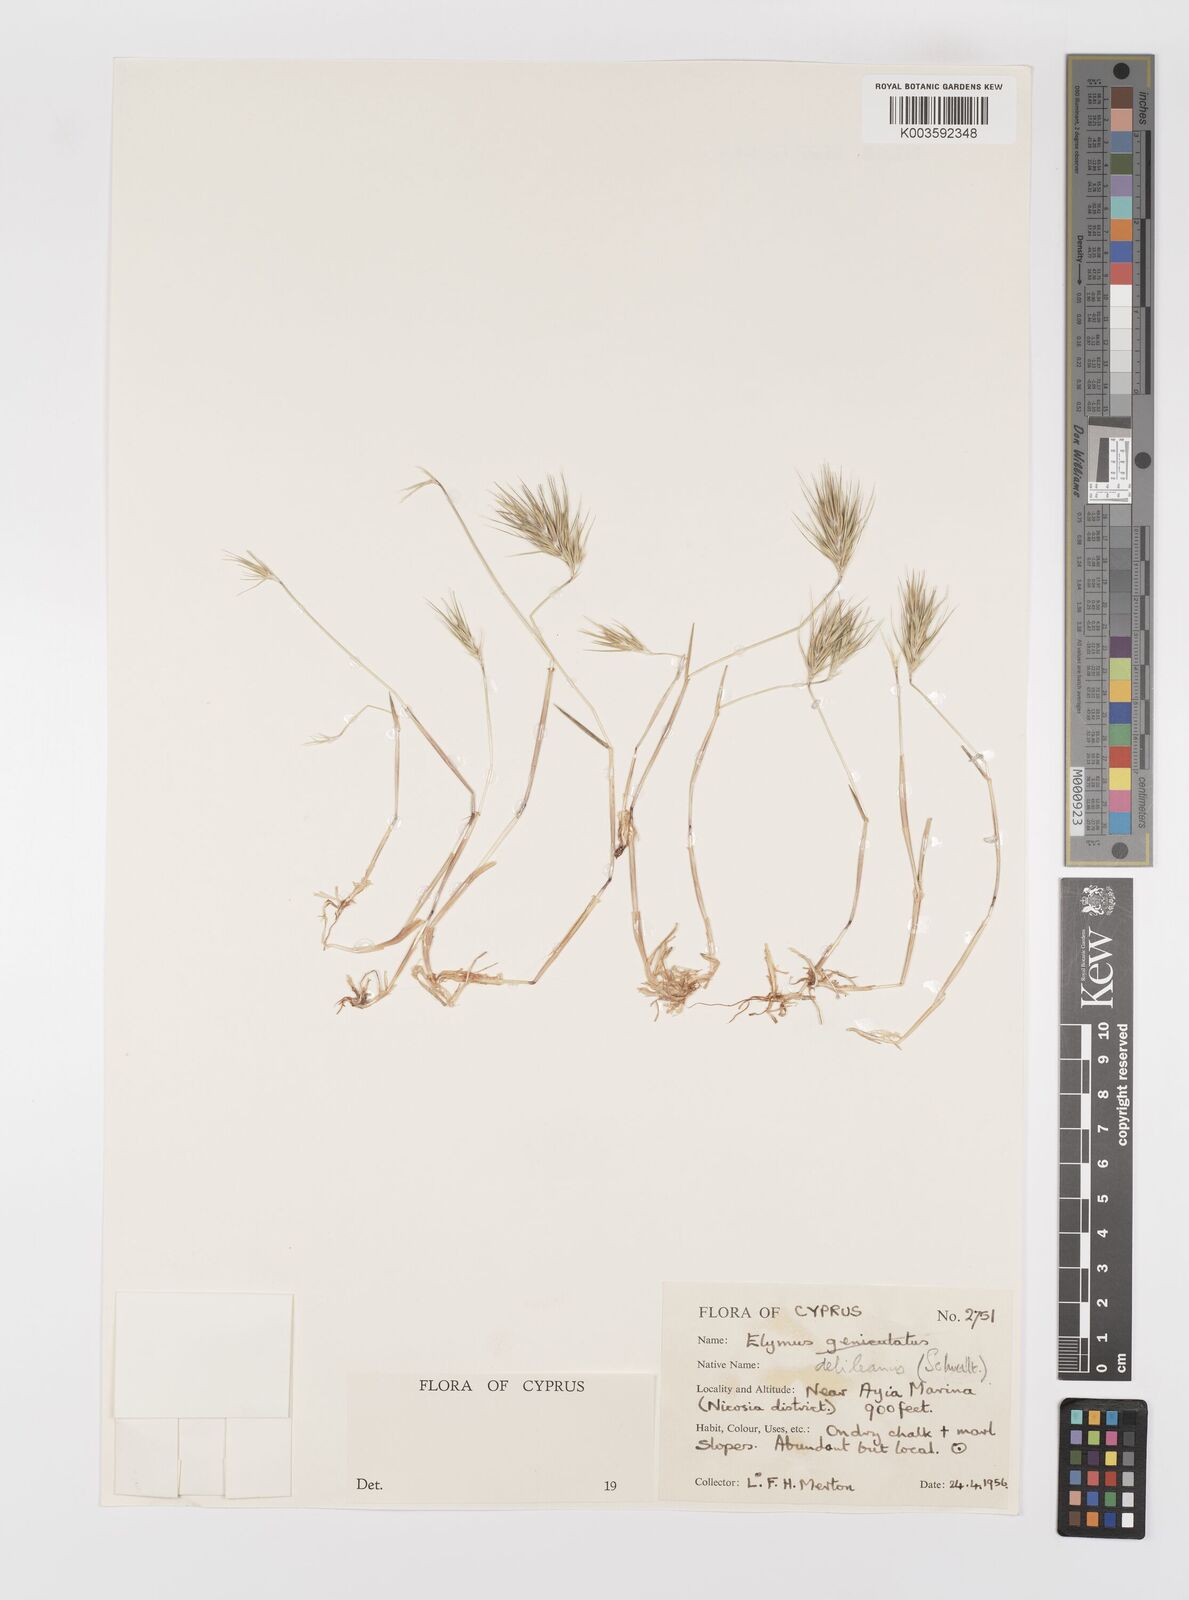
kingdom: Plantae
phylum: Tracheophyta
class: Liliopsida
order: Poales
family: Poaceae
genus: Crithopsis
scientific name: Crithopsis delileana
